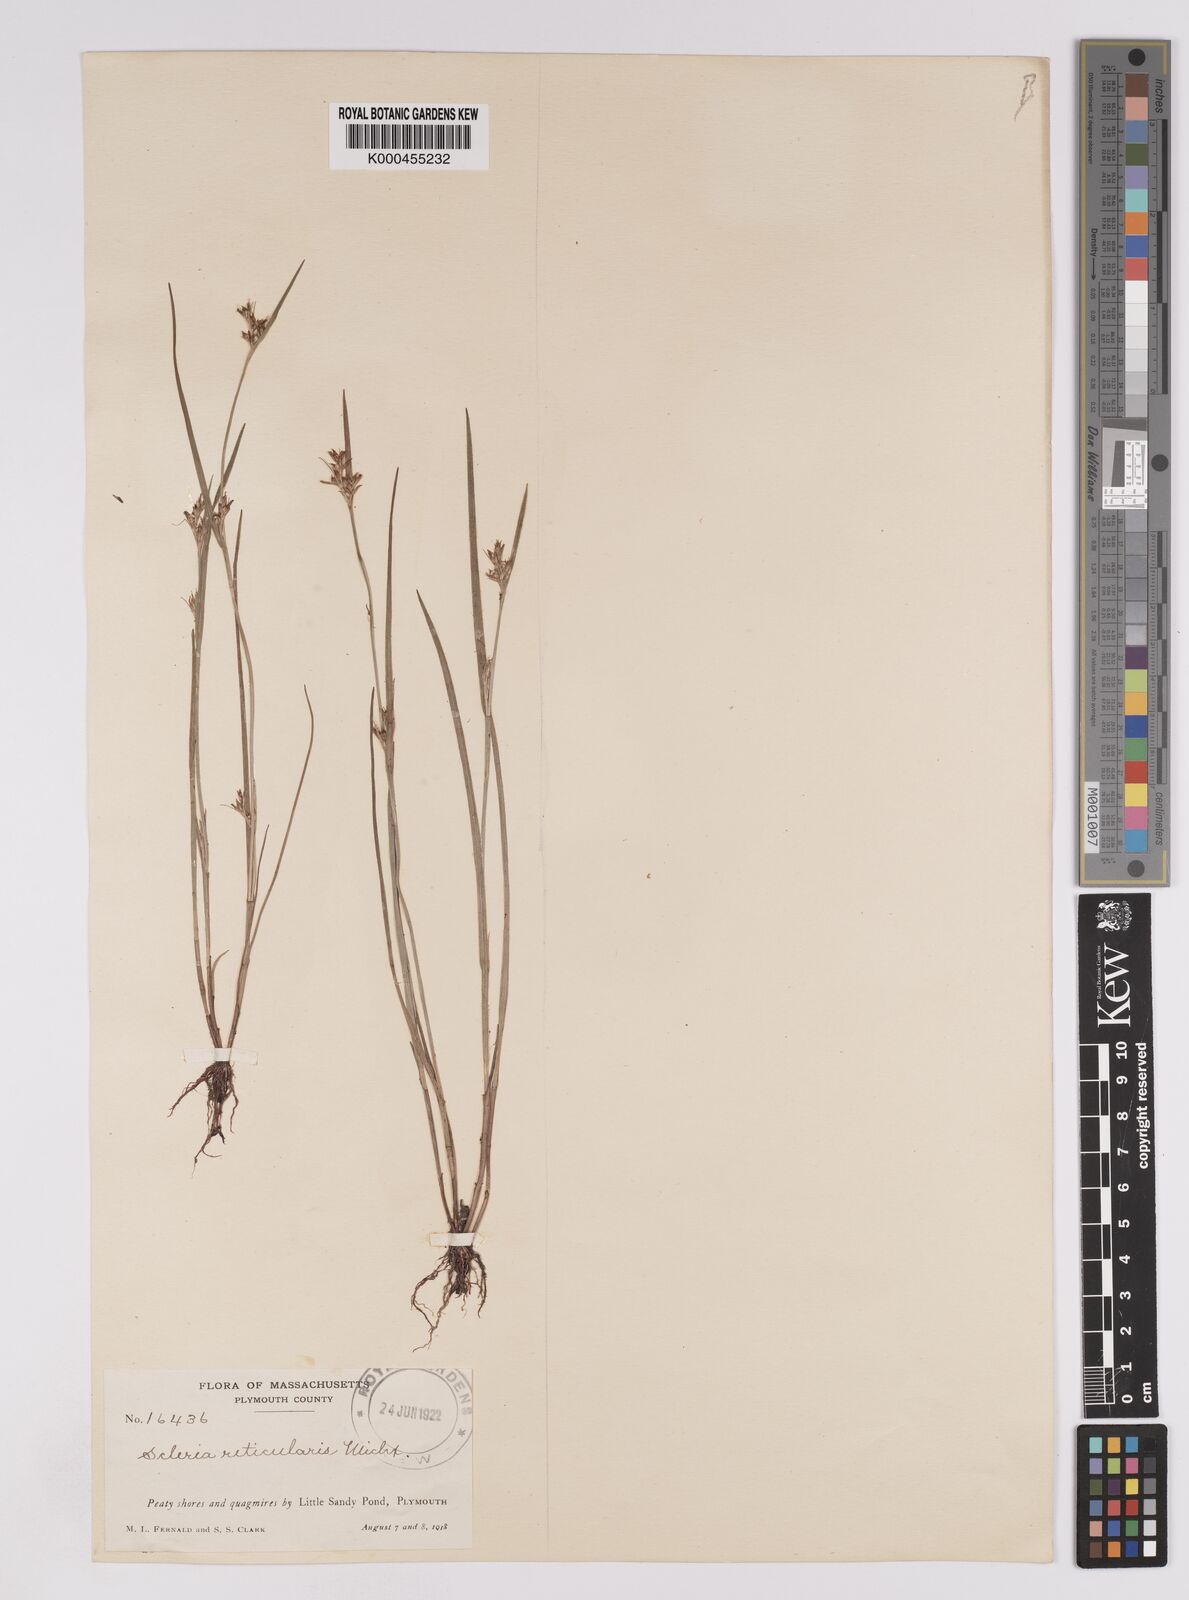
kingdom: Plantae
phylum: Tracheophyta
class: Liliopsida
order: Poales
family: Cyperaceae
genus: Scleria
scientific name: Scleria
